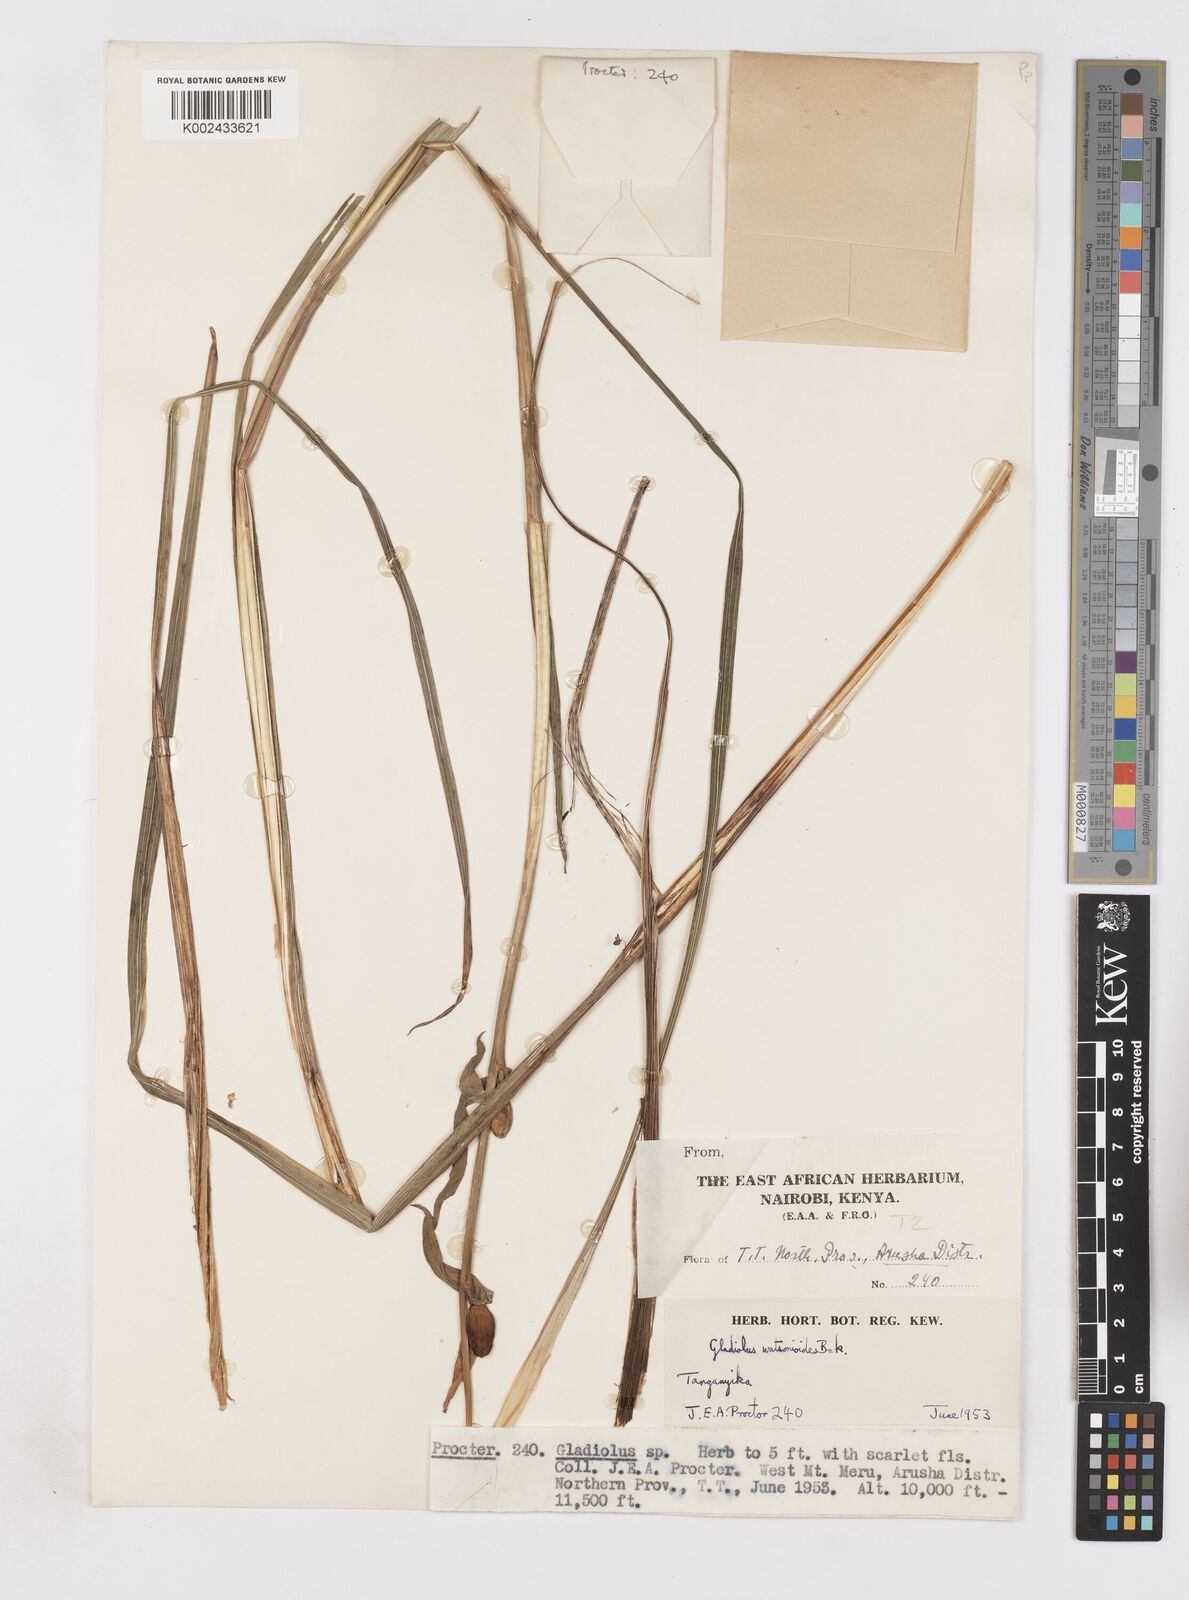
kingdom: Plantae
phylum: Tracheophyta
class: Liliopsida
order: Asparagales
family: Iridaceae
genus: Gladiolus
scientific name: Gladiolus watsonioides
